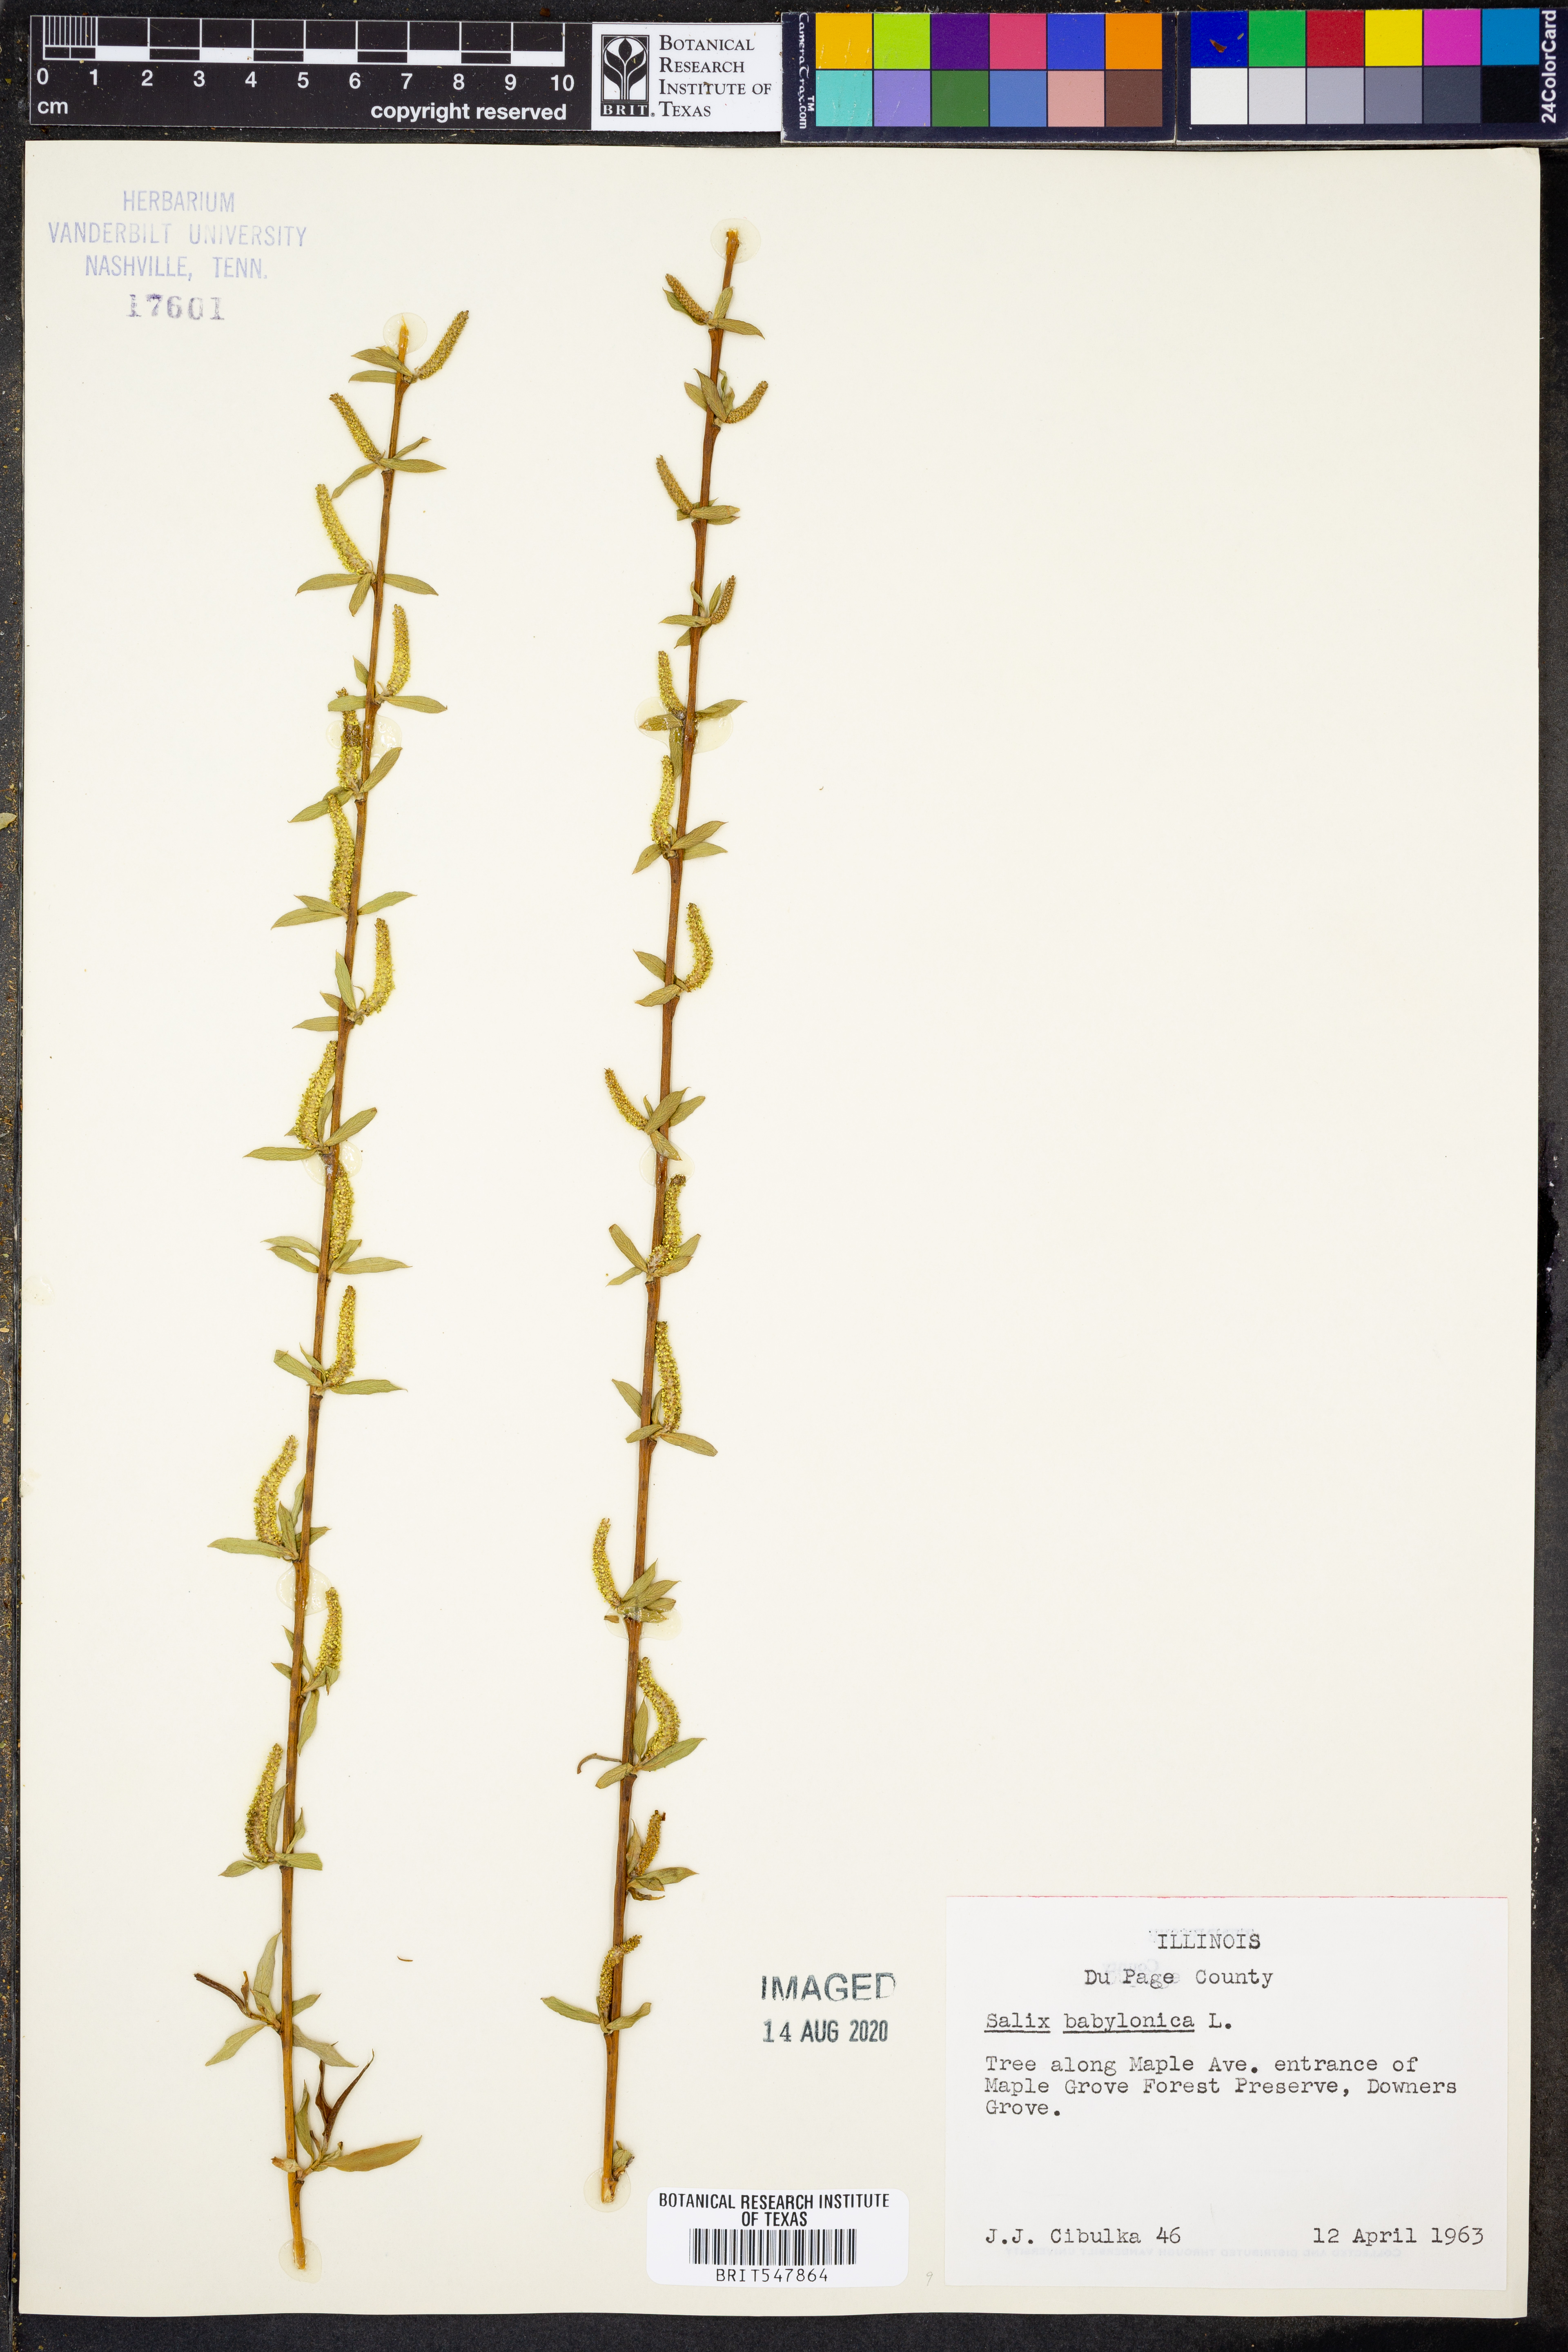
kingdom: Plantae
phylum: Tracheophyta
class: Magnoliopsida
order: Malpighiales
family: Salicaceae
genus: Salix
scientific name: Salix babylonica
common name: Weeping willow
